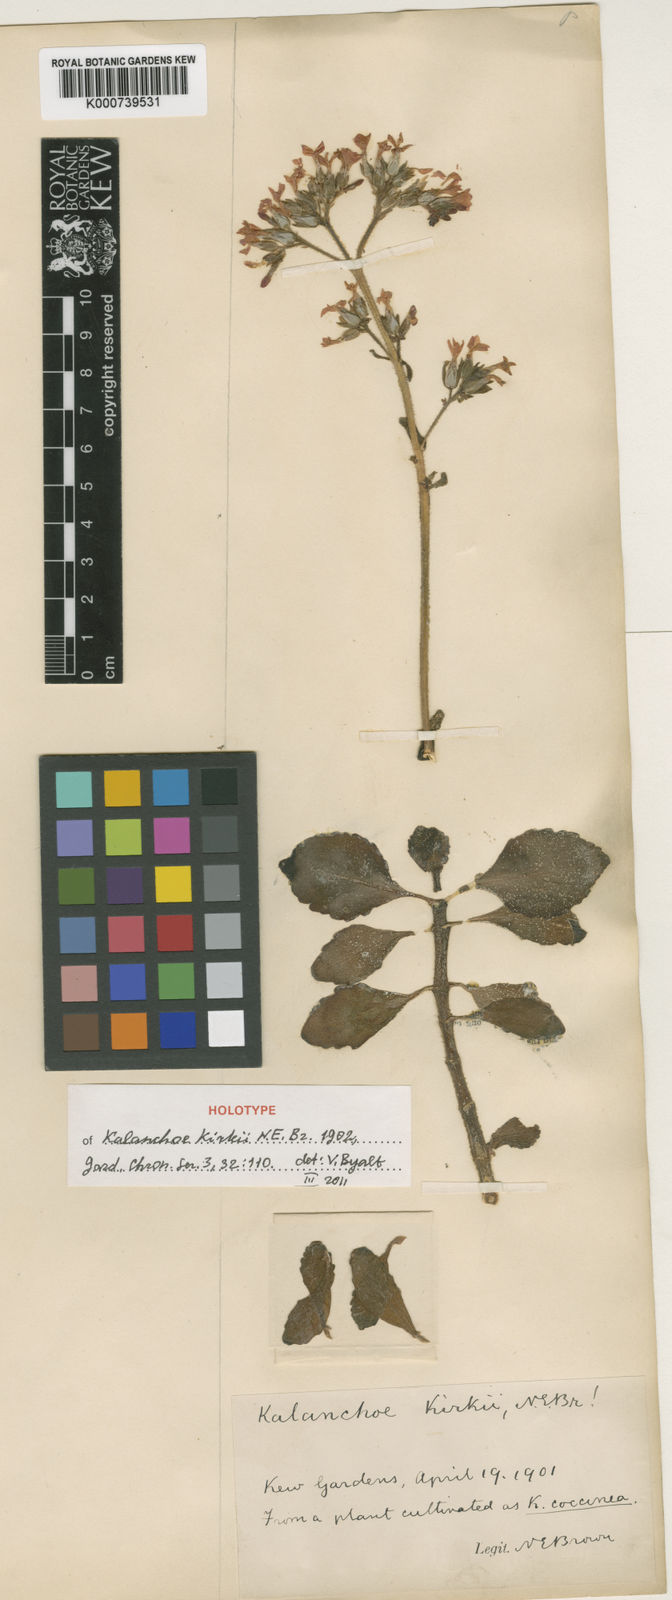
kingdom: Plantae
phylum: Tracheophyta
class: Magnoliopsida
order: Saxifragales
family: Crassulaceae
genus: Kalanchoe
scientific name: Kalanchoe lateritia
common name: Kalanchoe
